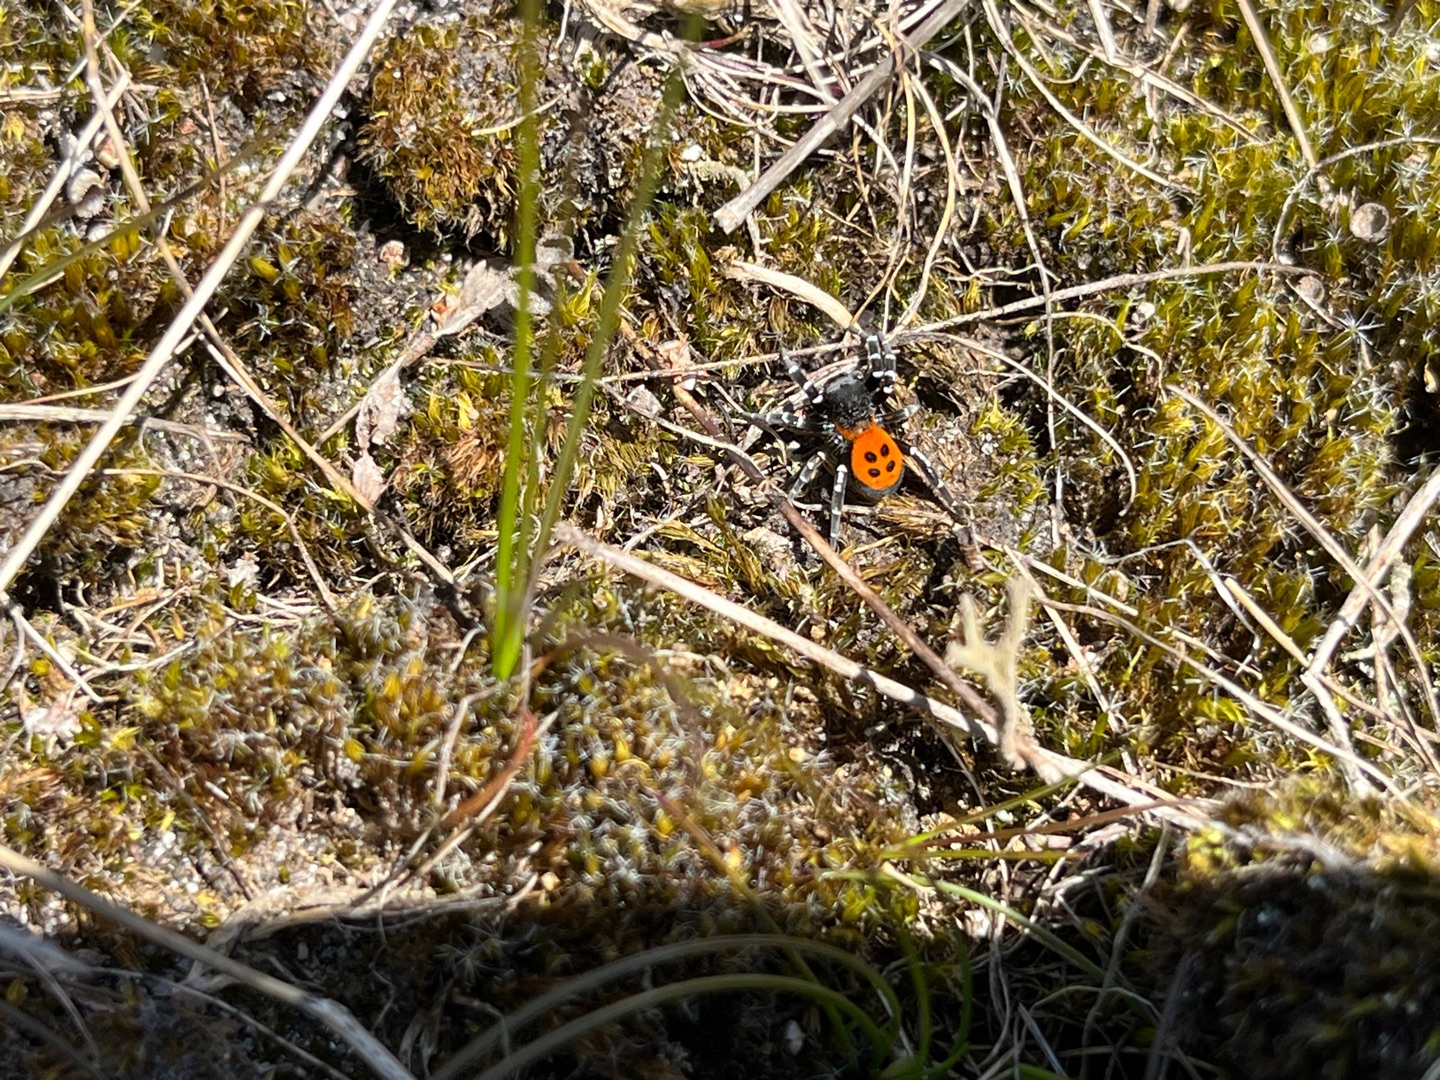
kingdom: Animalia
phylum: Arthropoda
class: Arachnida
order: Araneae
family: Eresidae
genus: Eresus
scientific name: Eresus sandaliatus
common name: Mariehøneedderkop
